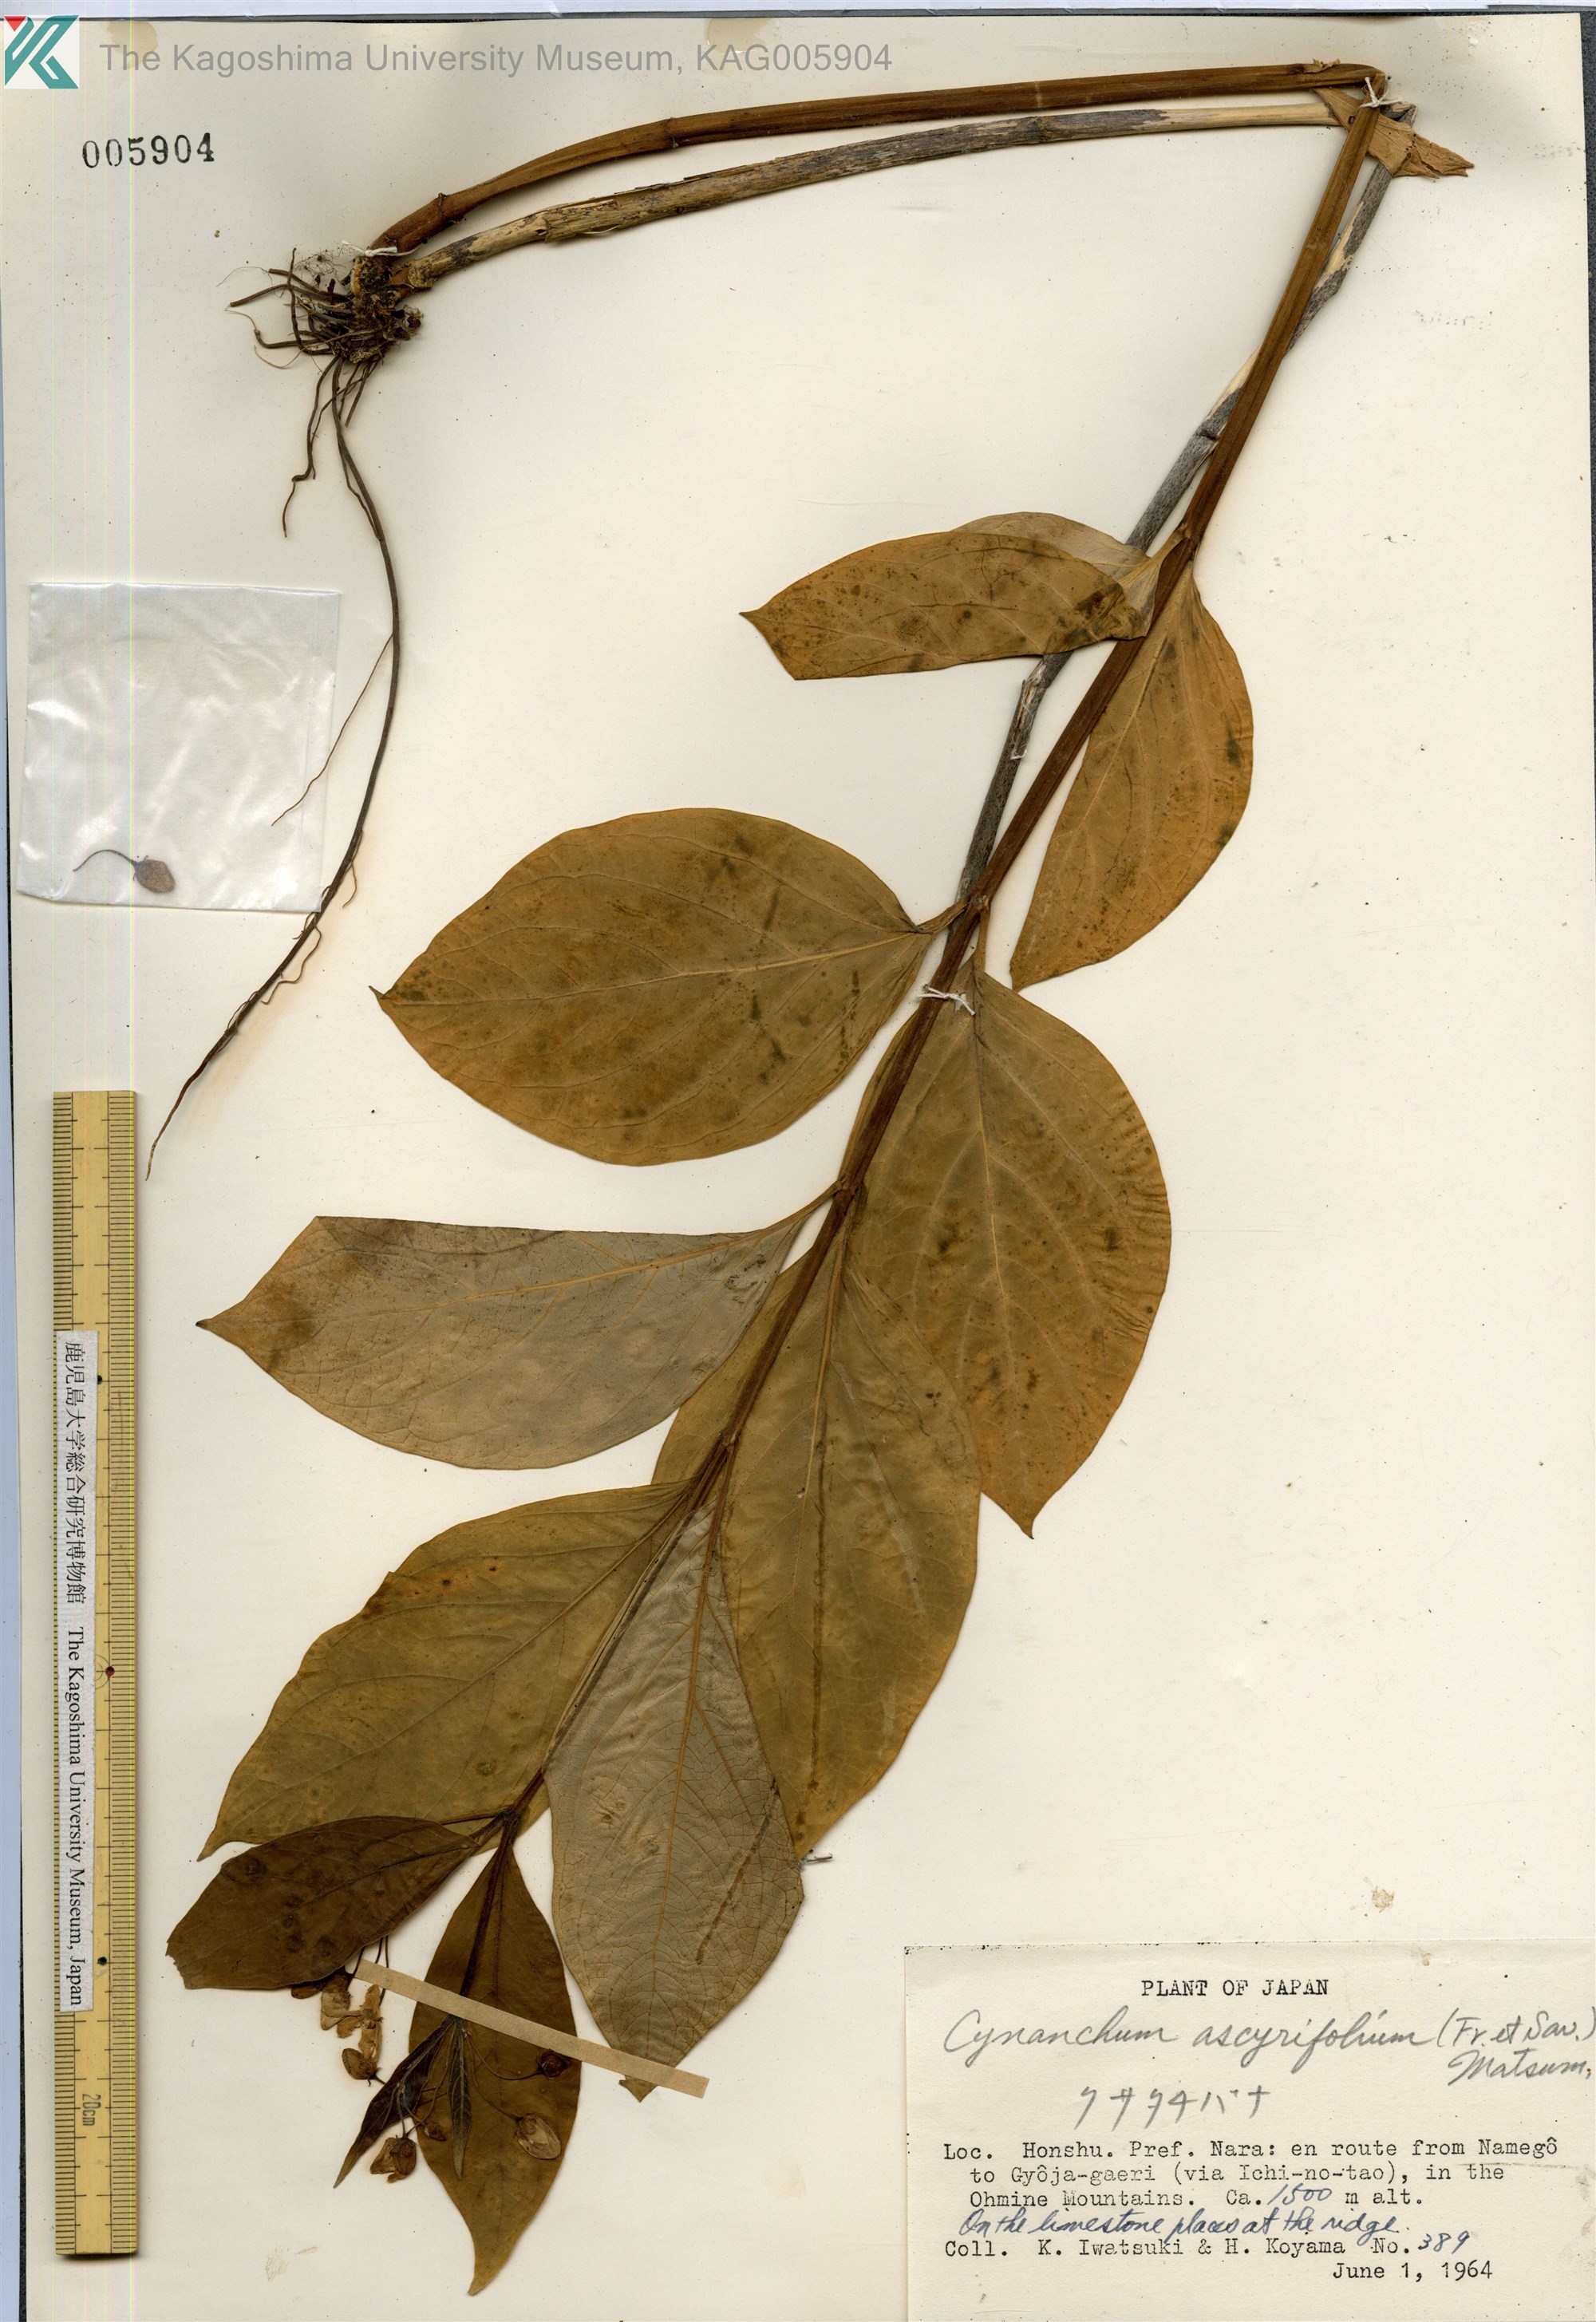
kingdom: Plantae
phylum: Tracheophyta
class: Magnoliopsida
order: Gentianales
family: Apocynaceae
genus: Vincetoxicum
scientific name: Vincetoxicum ascyrifolium
